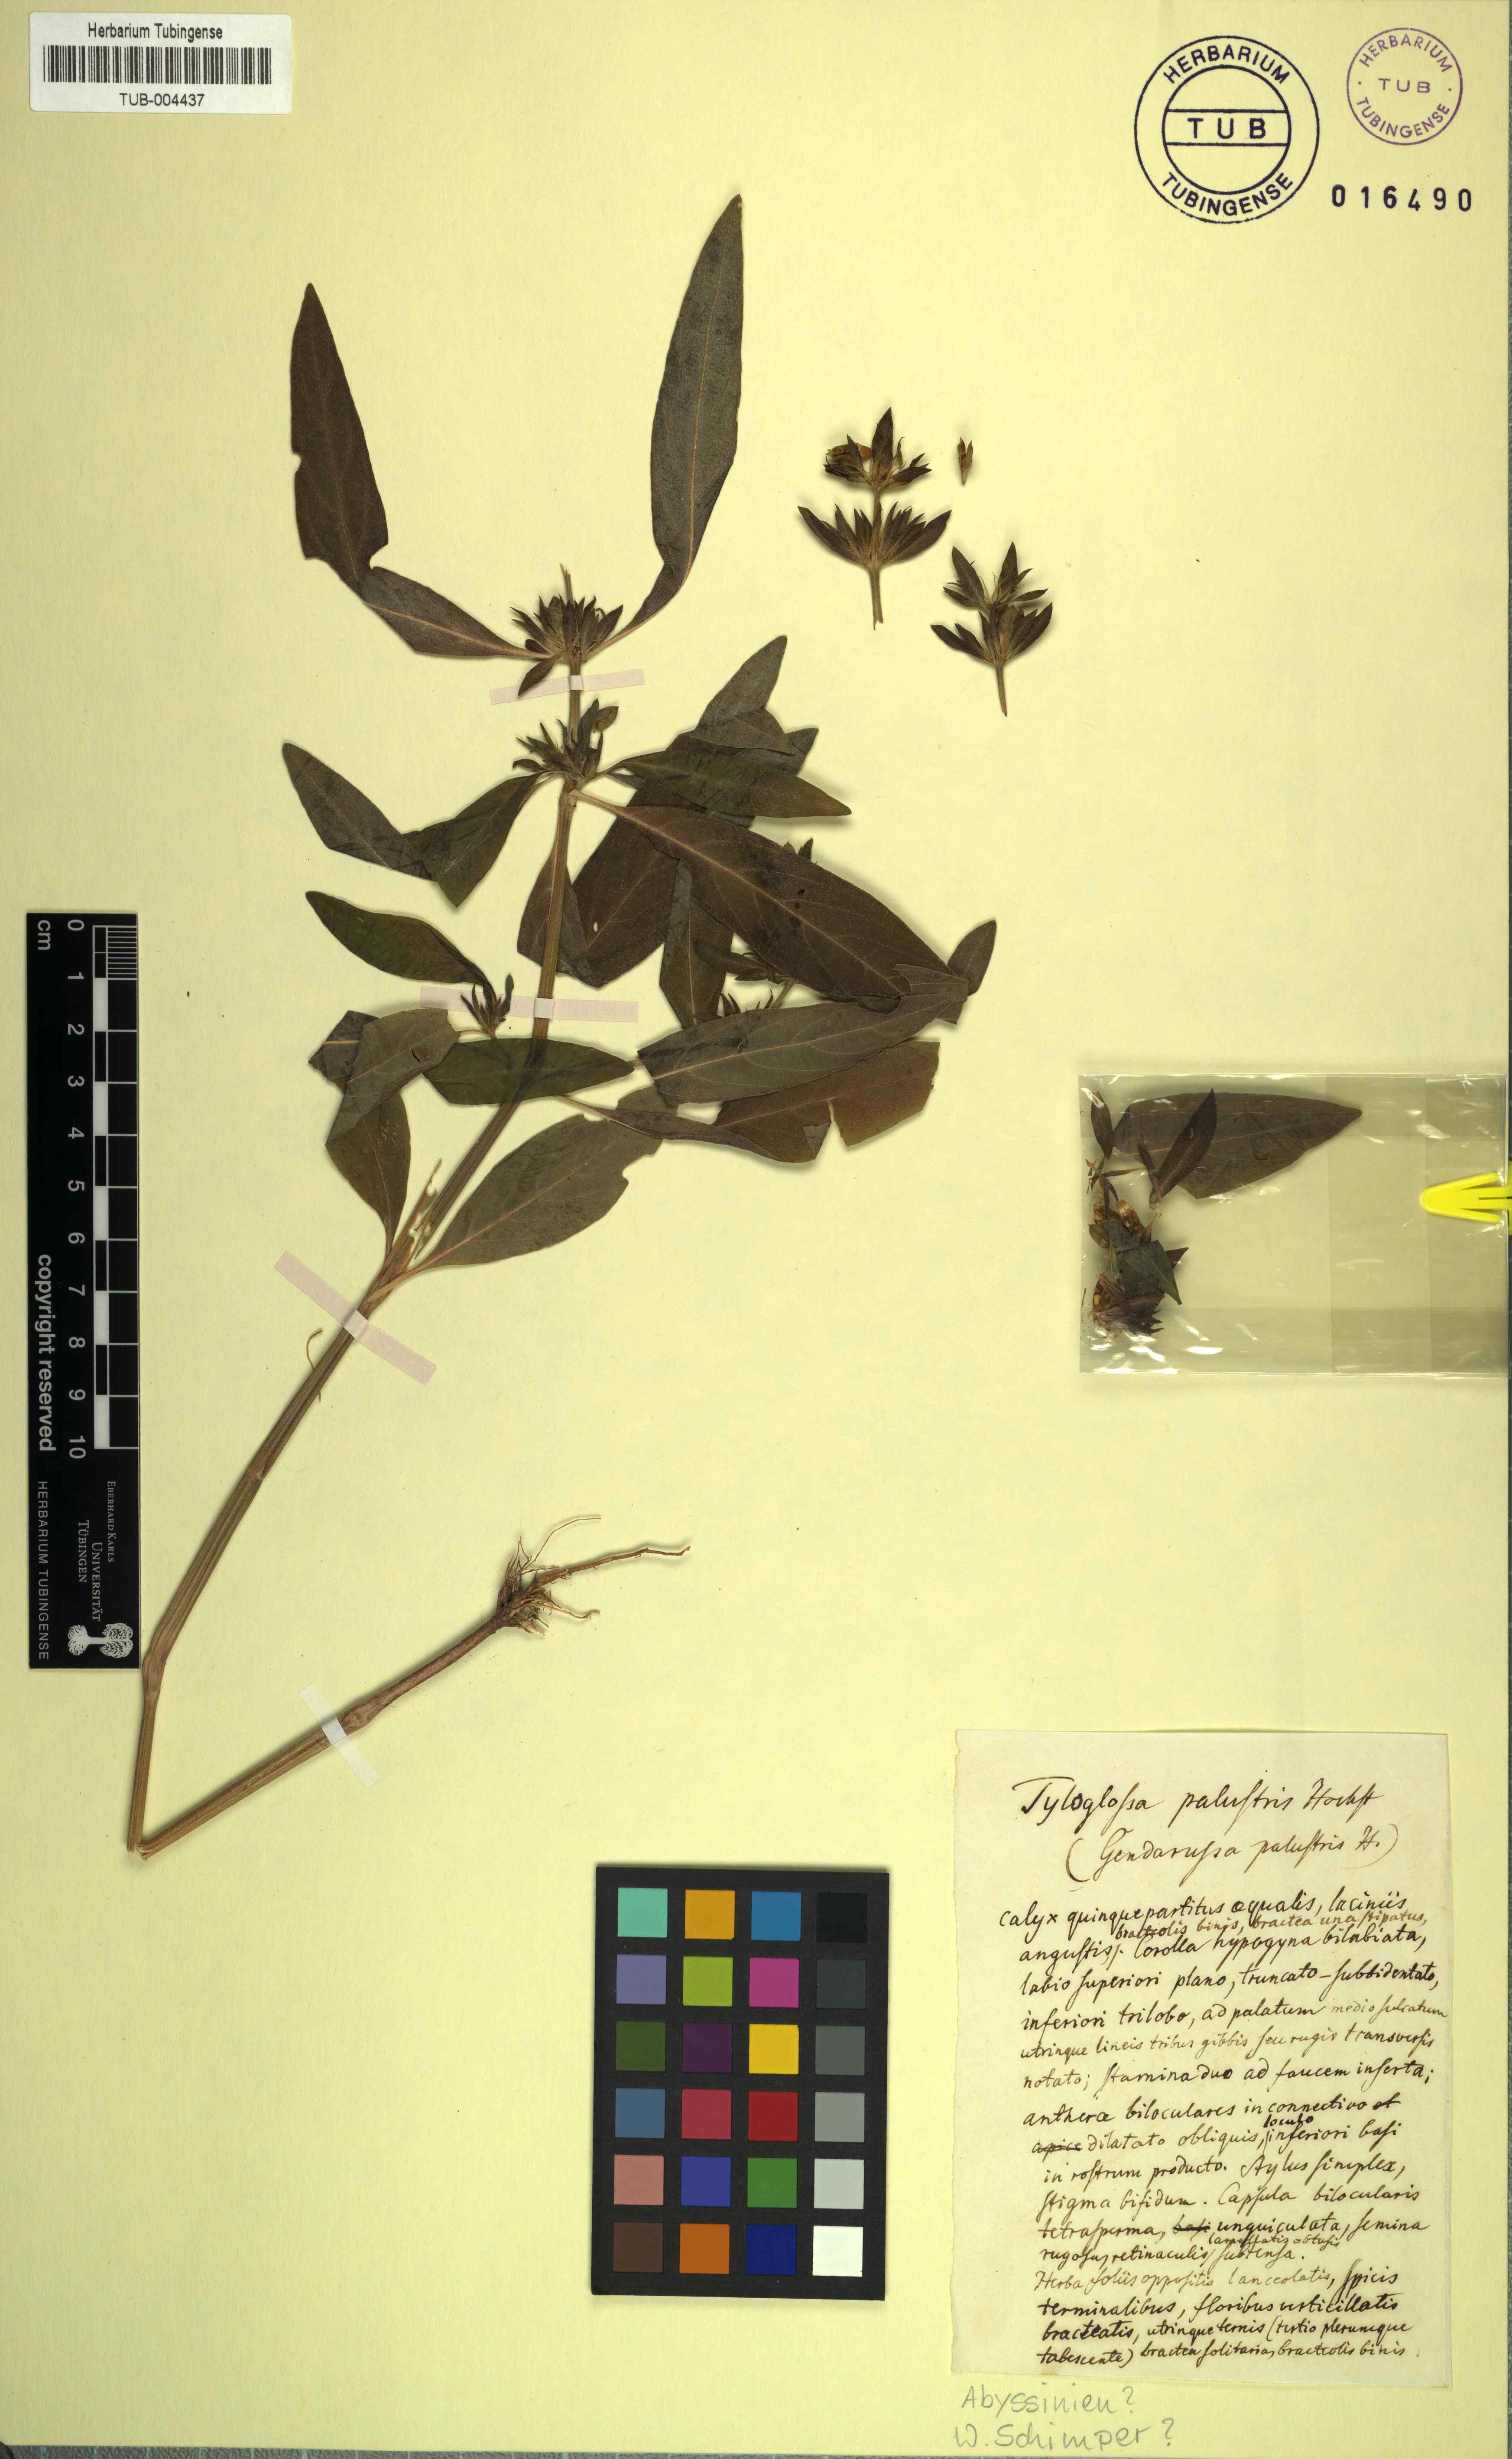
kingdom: Plantae
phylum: Tracheophyta
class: Magnoliopsida
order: Lamiales
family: Acanthaceae
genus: Justicia
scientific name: Justicia flava
